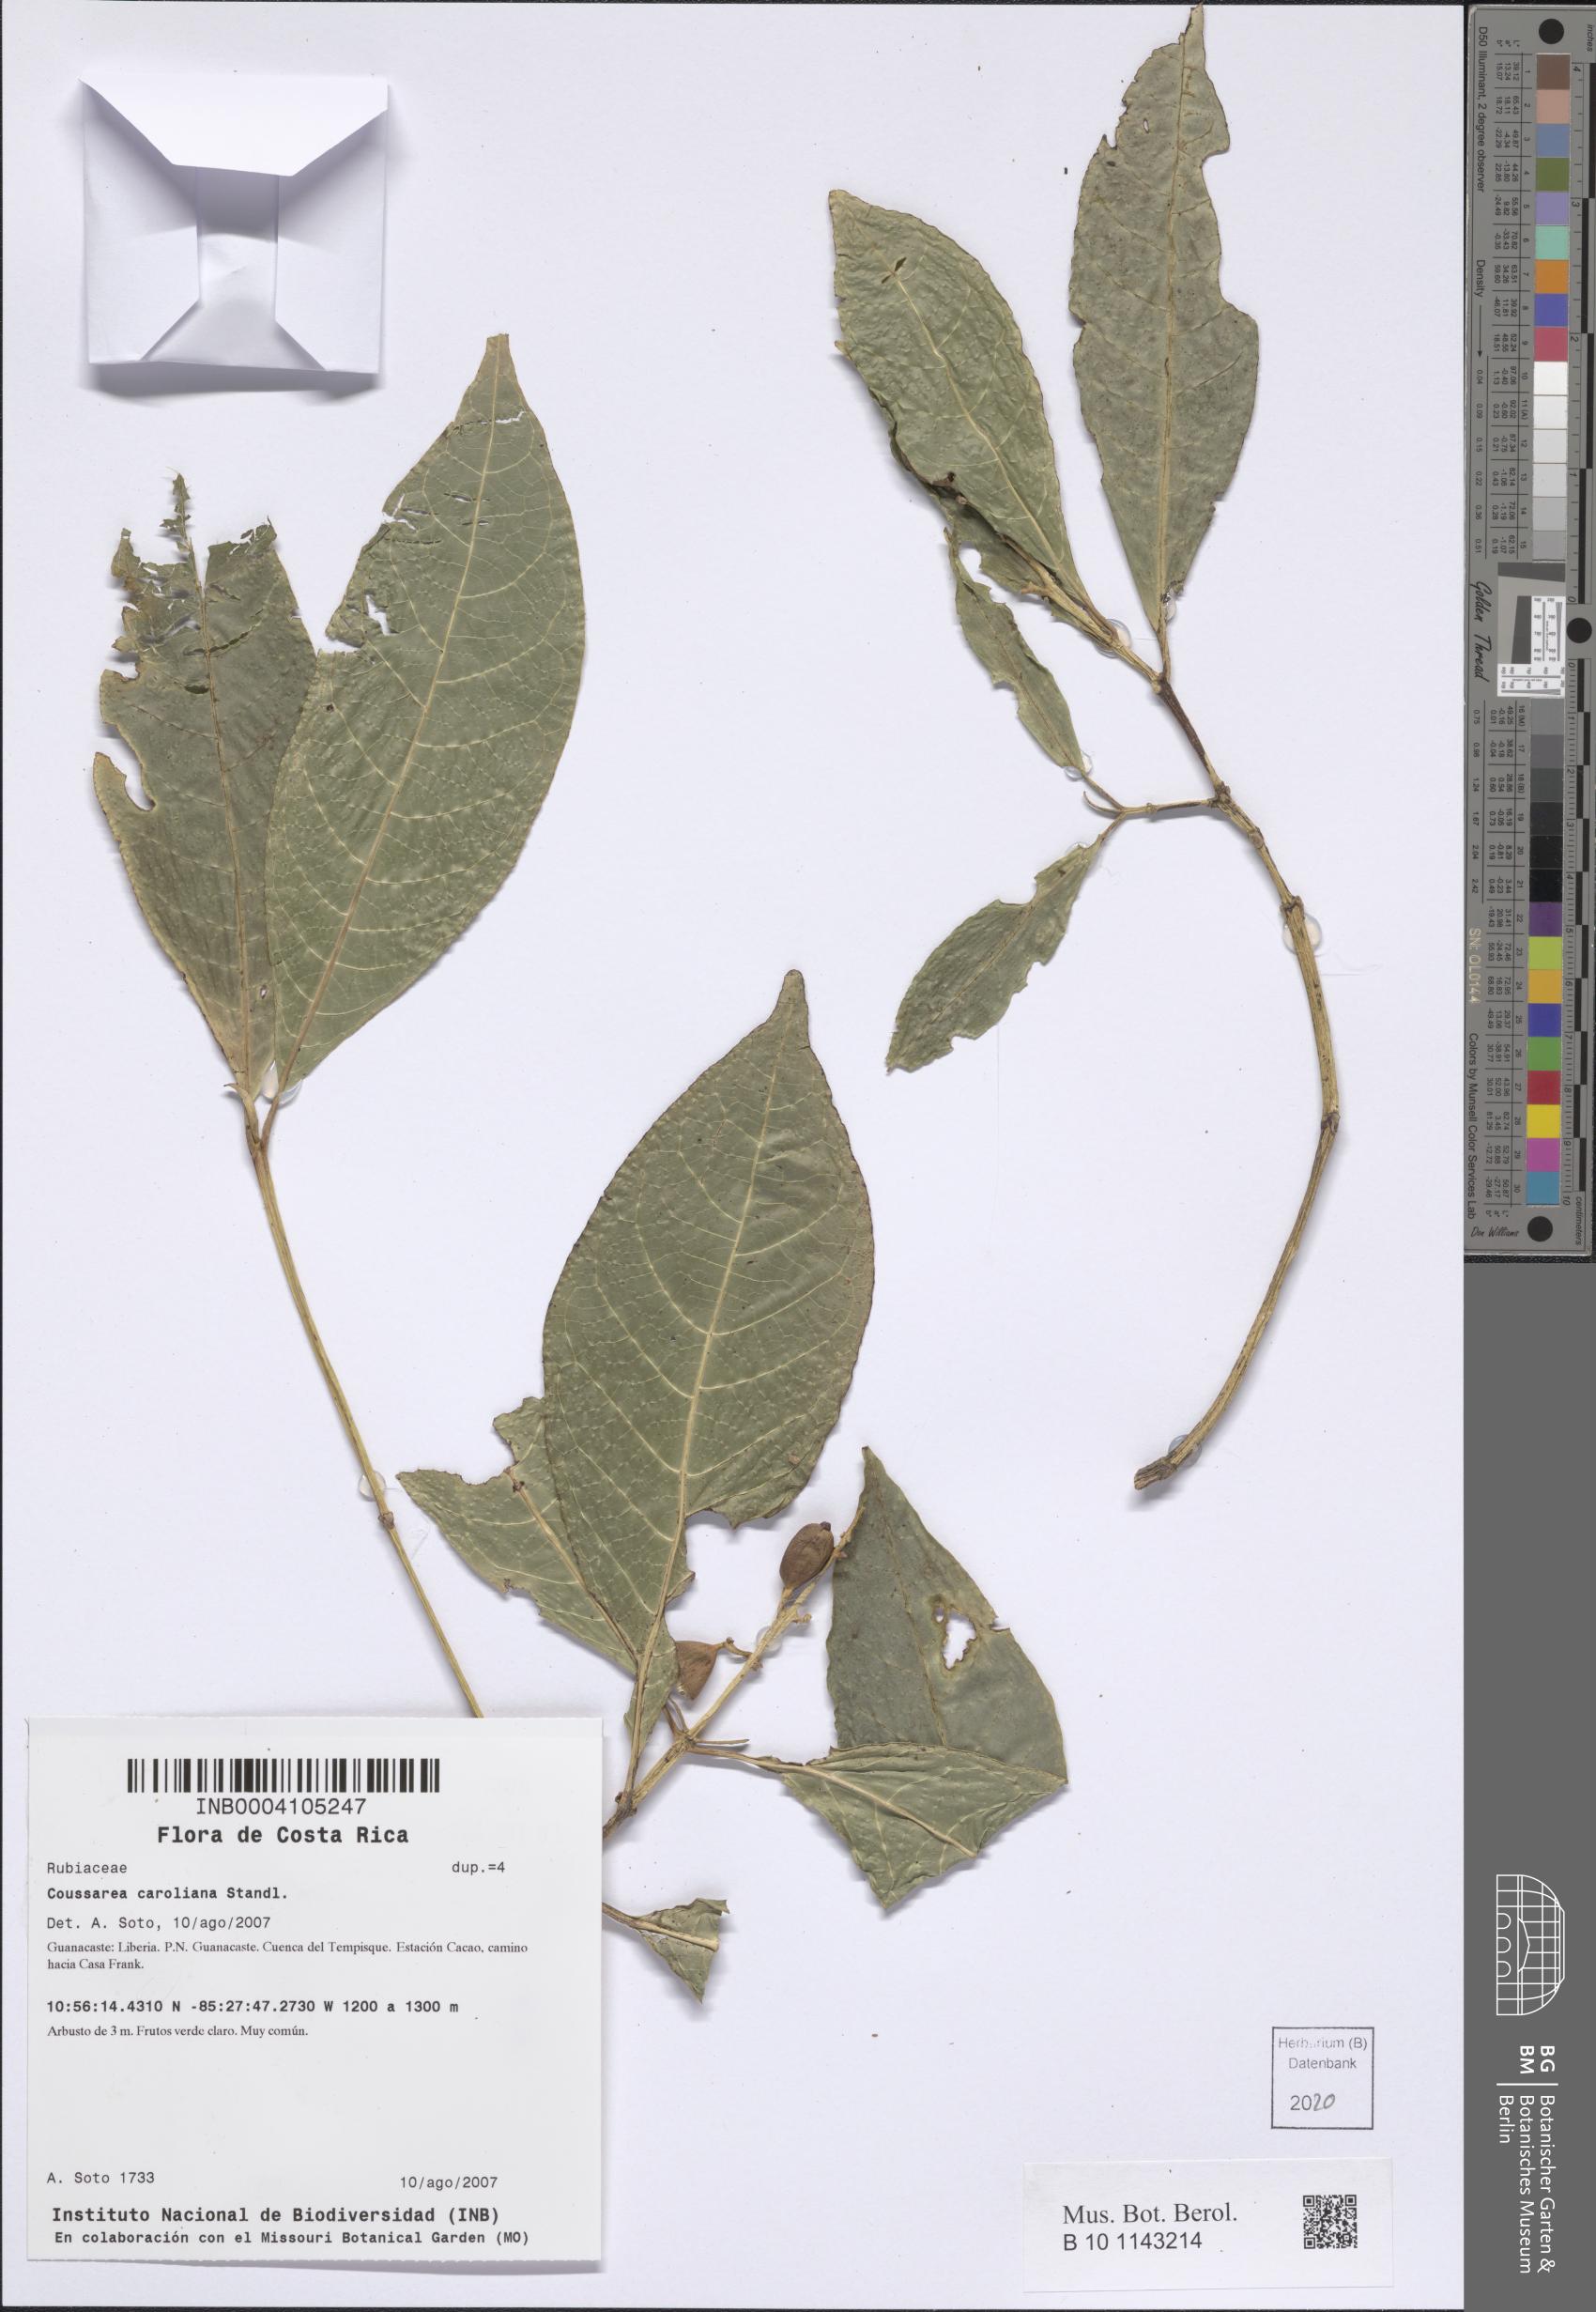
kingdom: Plantae
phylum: Tracheophyta
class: Magnoliopsida
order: Gentianales
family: Rubiaceae
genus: Coussarea
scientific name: Coussarea caroliana
